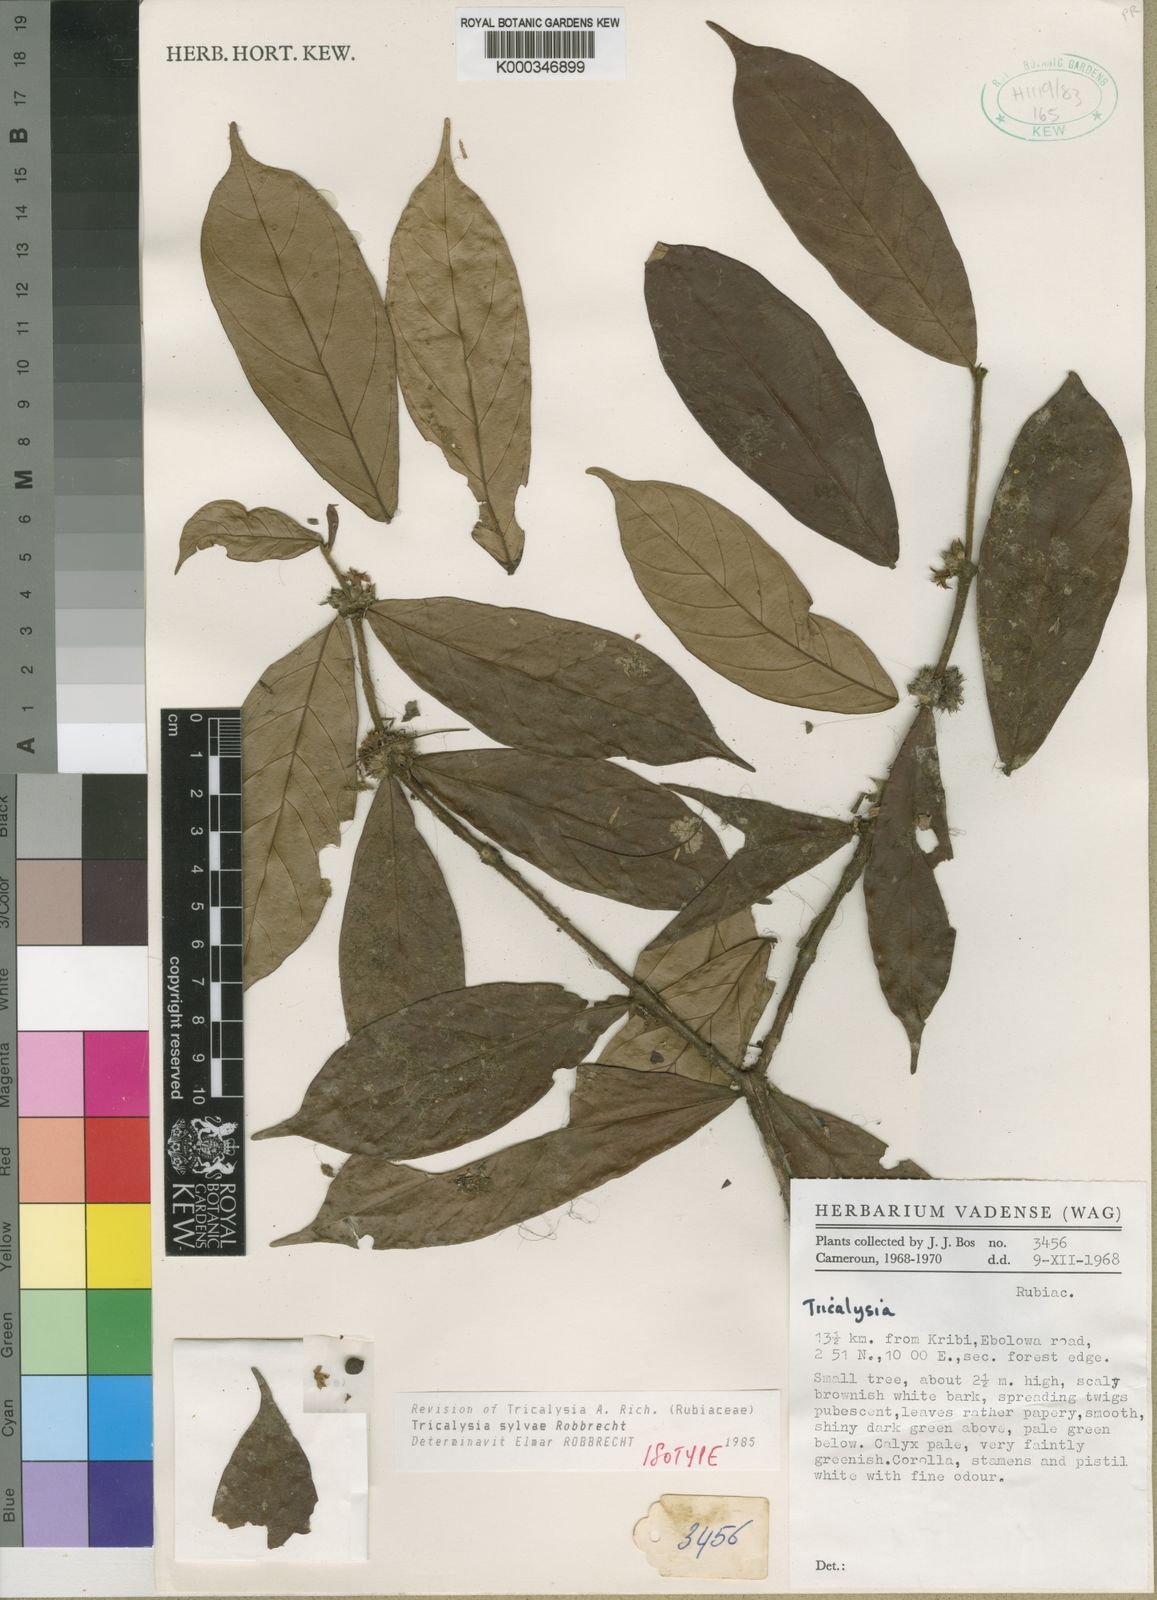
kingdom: Plantae
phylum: Tracheophyta
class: Magnoliopsida
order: Gentianales
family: Rubiaceae
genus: Tricalysia
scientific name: Tricalysia sylvae
